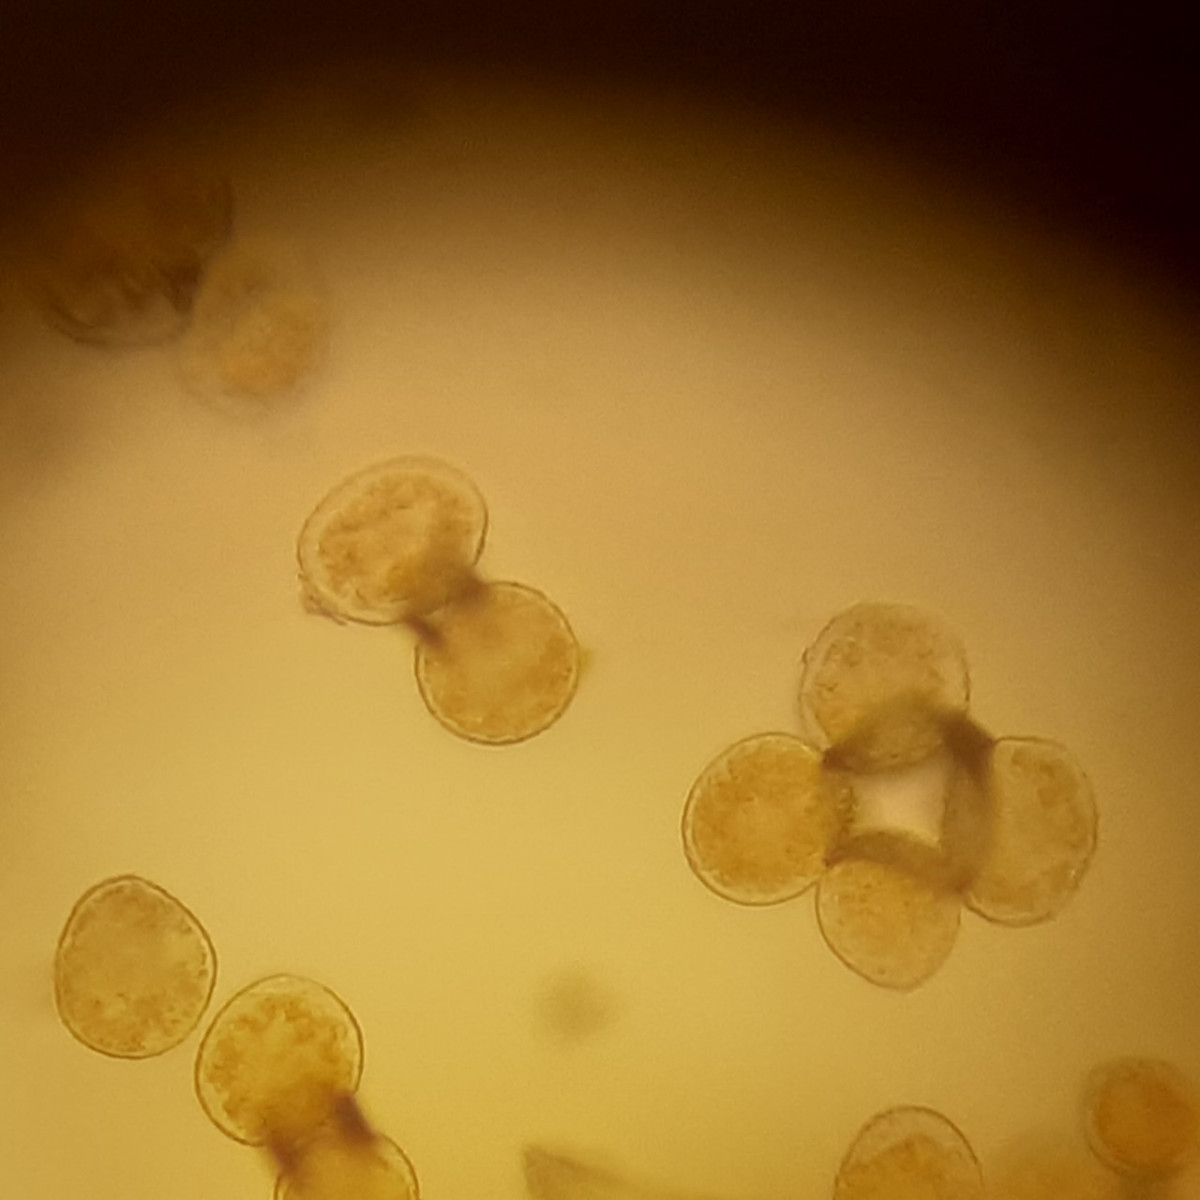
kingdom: Fungi
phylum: Basidiomycota
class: Pucciniomycetes
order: Pucciniales
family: Pucciniastraceae
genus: Pucciniastrum
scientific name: Pucciniastrum guttatum
